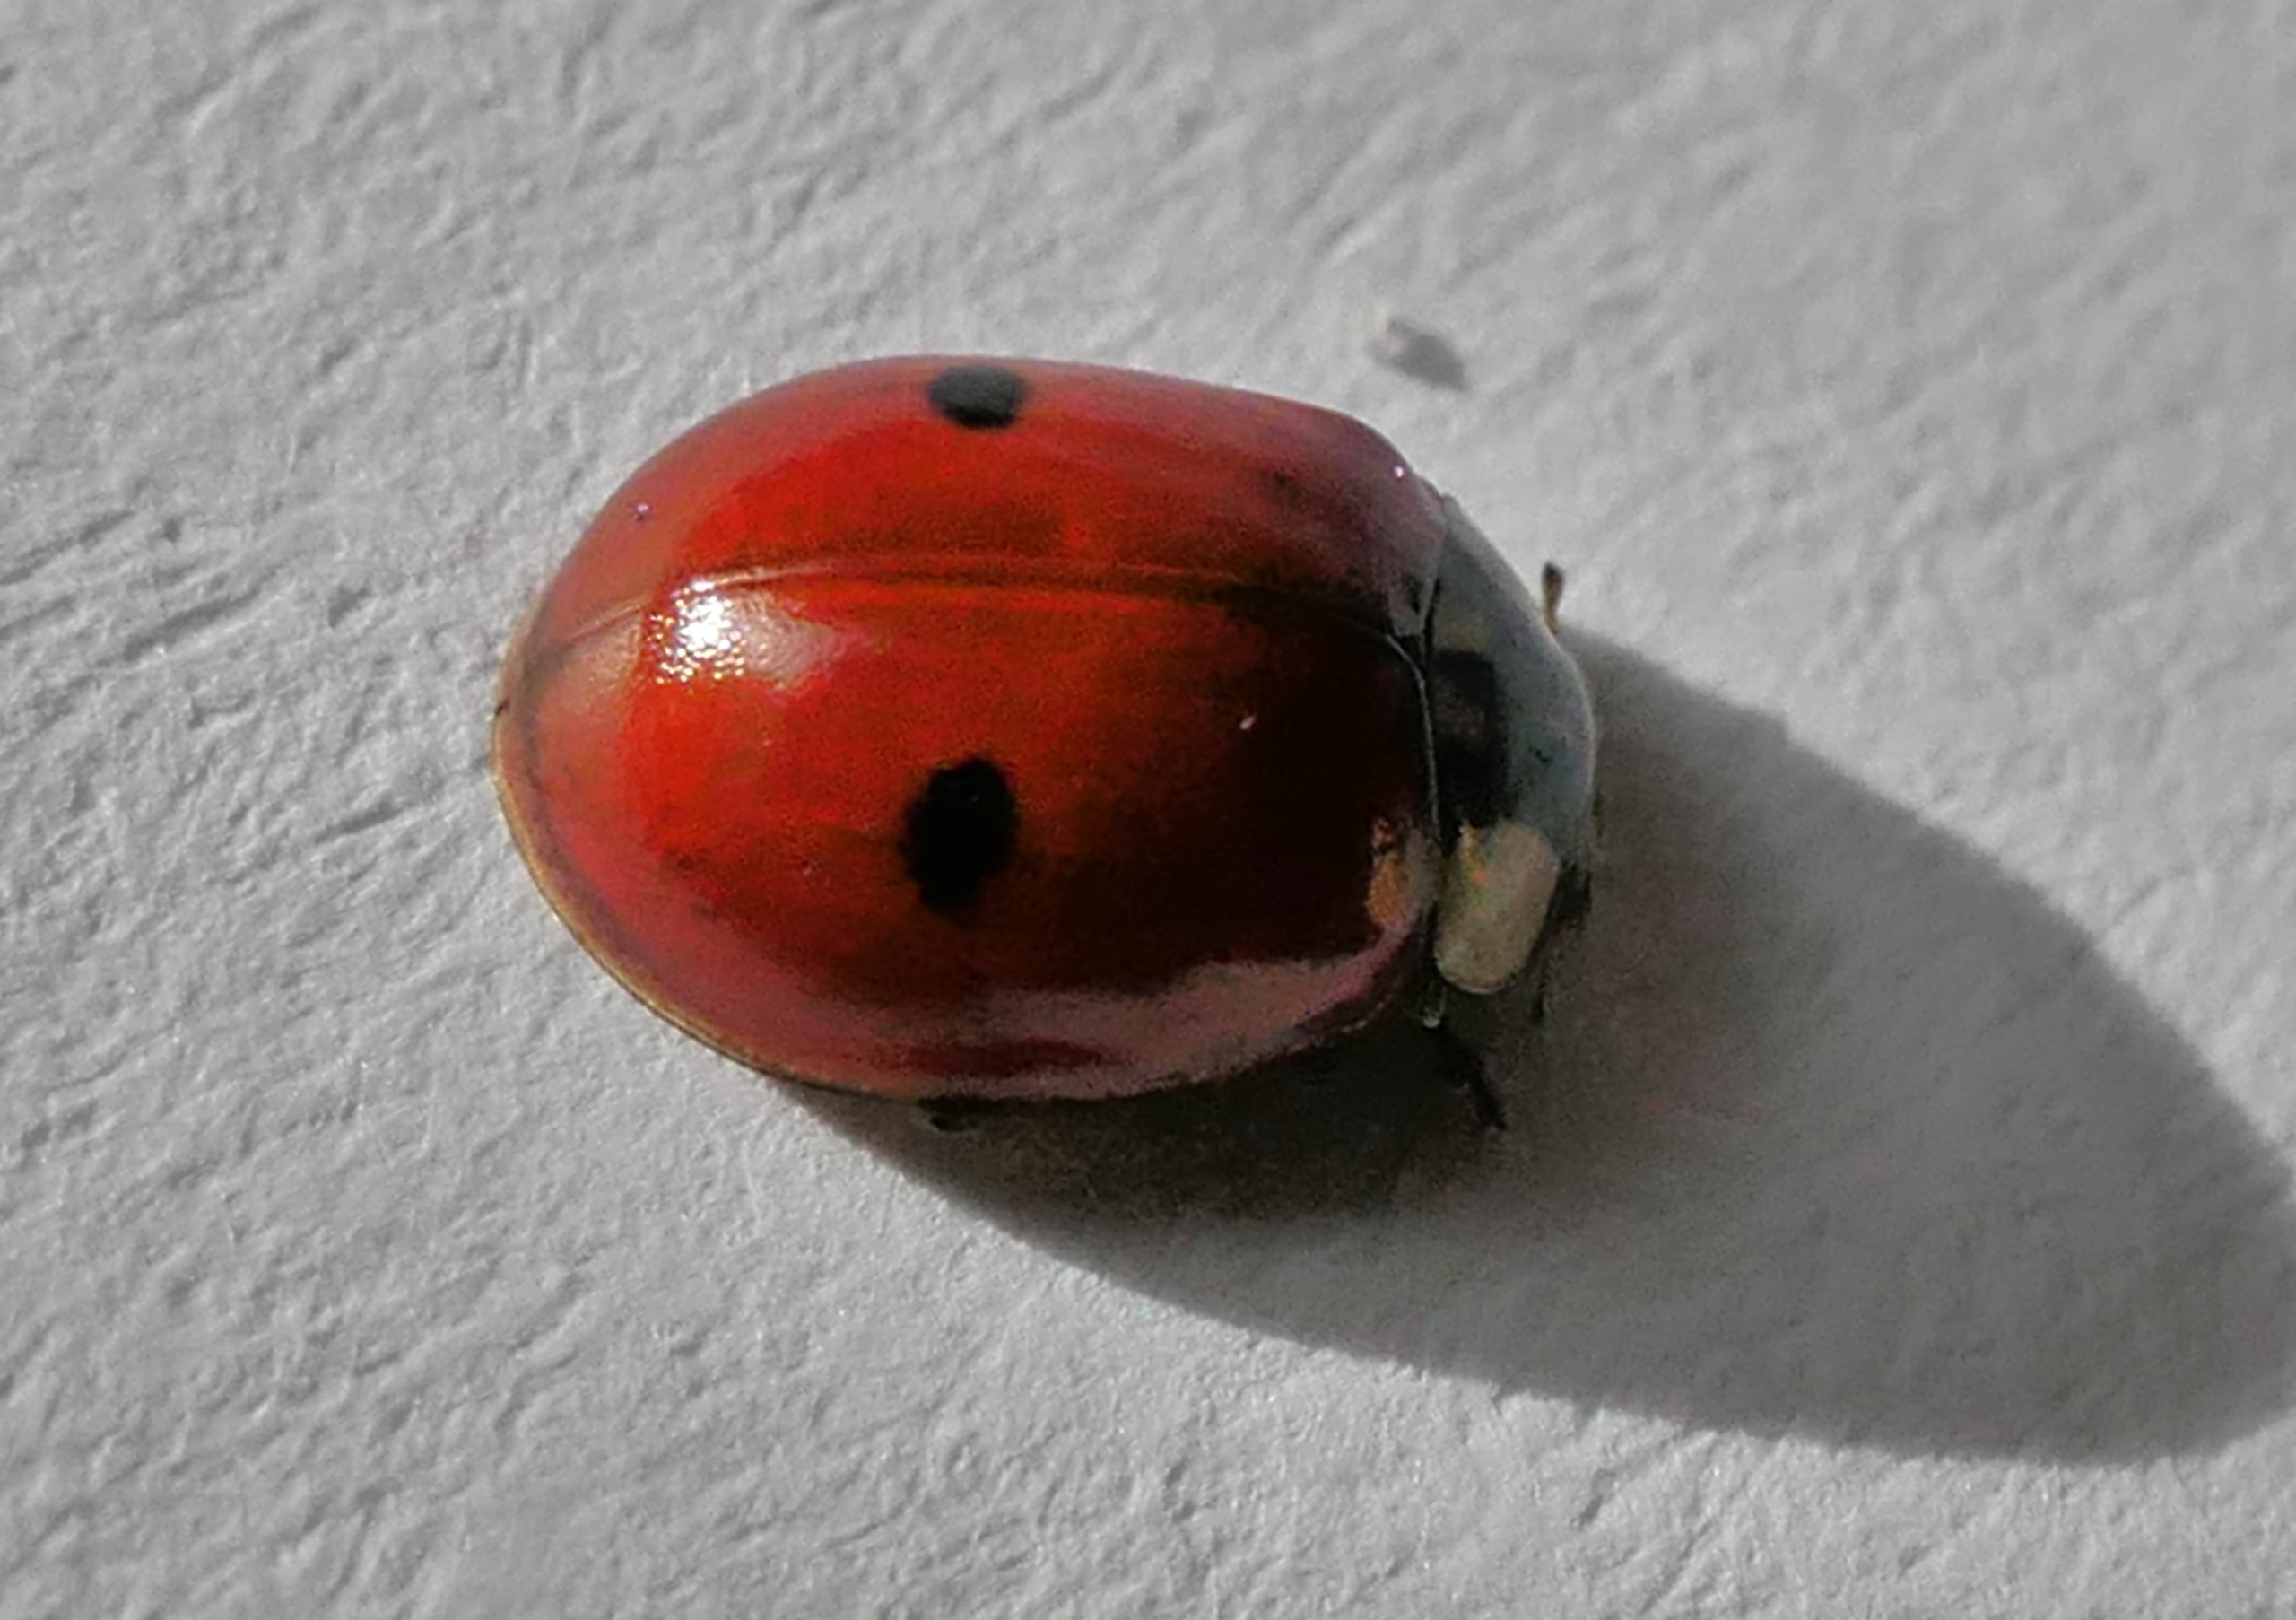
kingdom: Animalia
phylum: Arthropoda
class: Insecta
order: Coleoptera
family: Coccinellidae
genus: Adalia
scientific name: Adalia bipunctata
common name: Toplettet mariehøne
